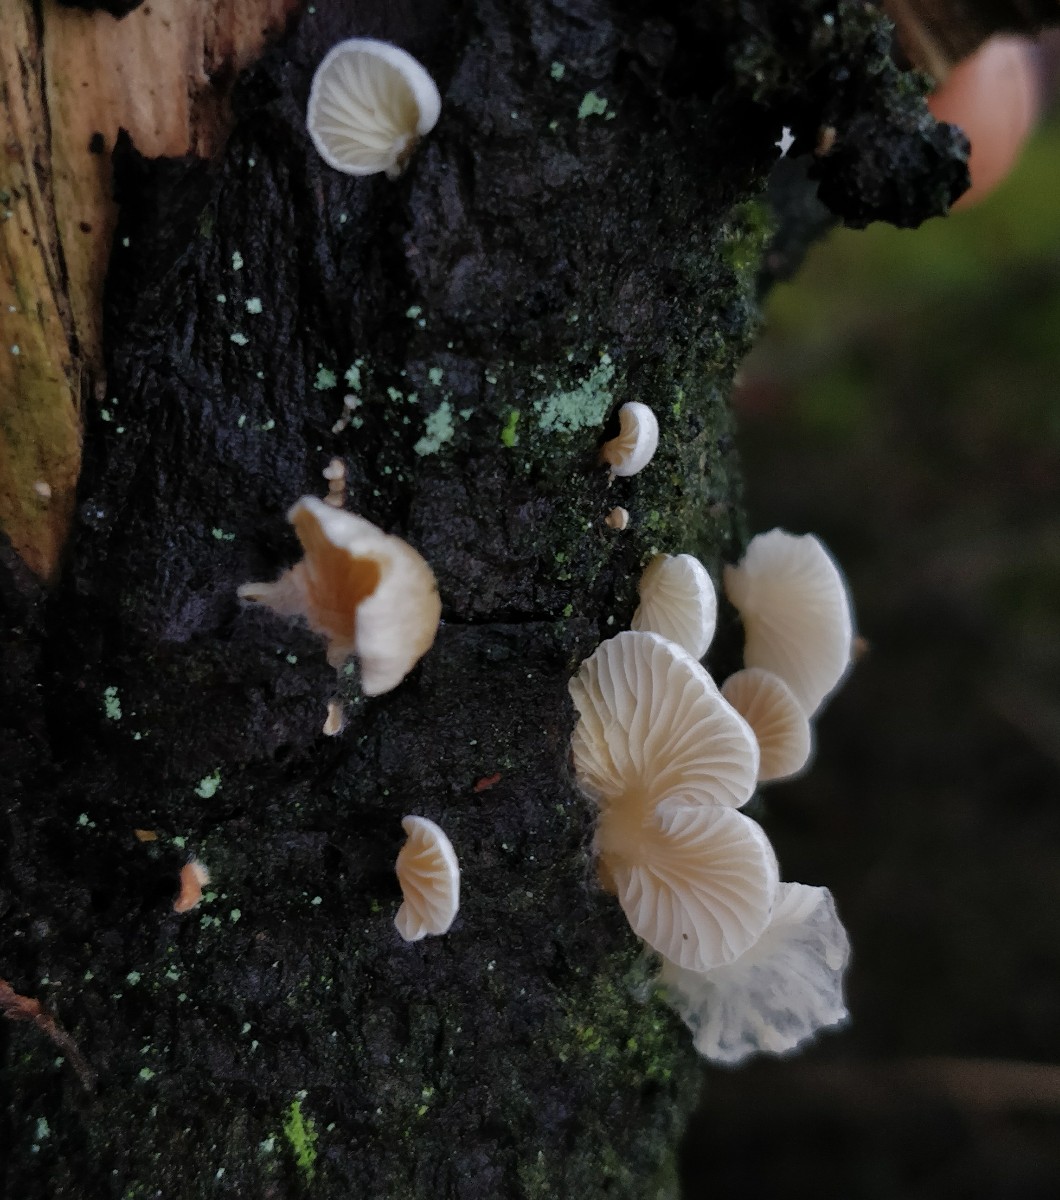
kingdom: Fungi
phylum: Basidiomycota
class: Agaricomycetes
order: Agaricales
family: Mycenaceae
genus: Panellus
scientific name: Panellus mitis
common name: mild epaulethat
